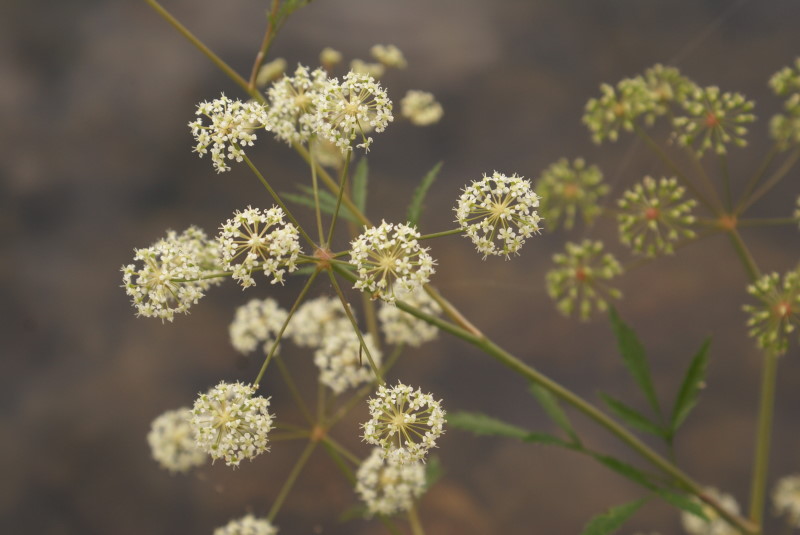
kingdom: Plantae
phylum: Tracheophyta
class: Magnoliopsida
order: Apiales
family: Apiaceae
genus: Cicuta
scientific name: Cicuta virosa
